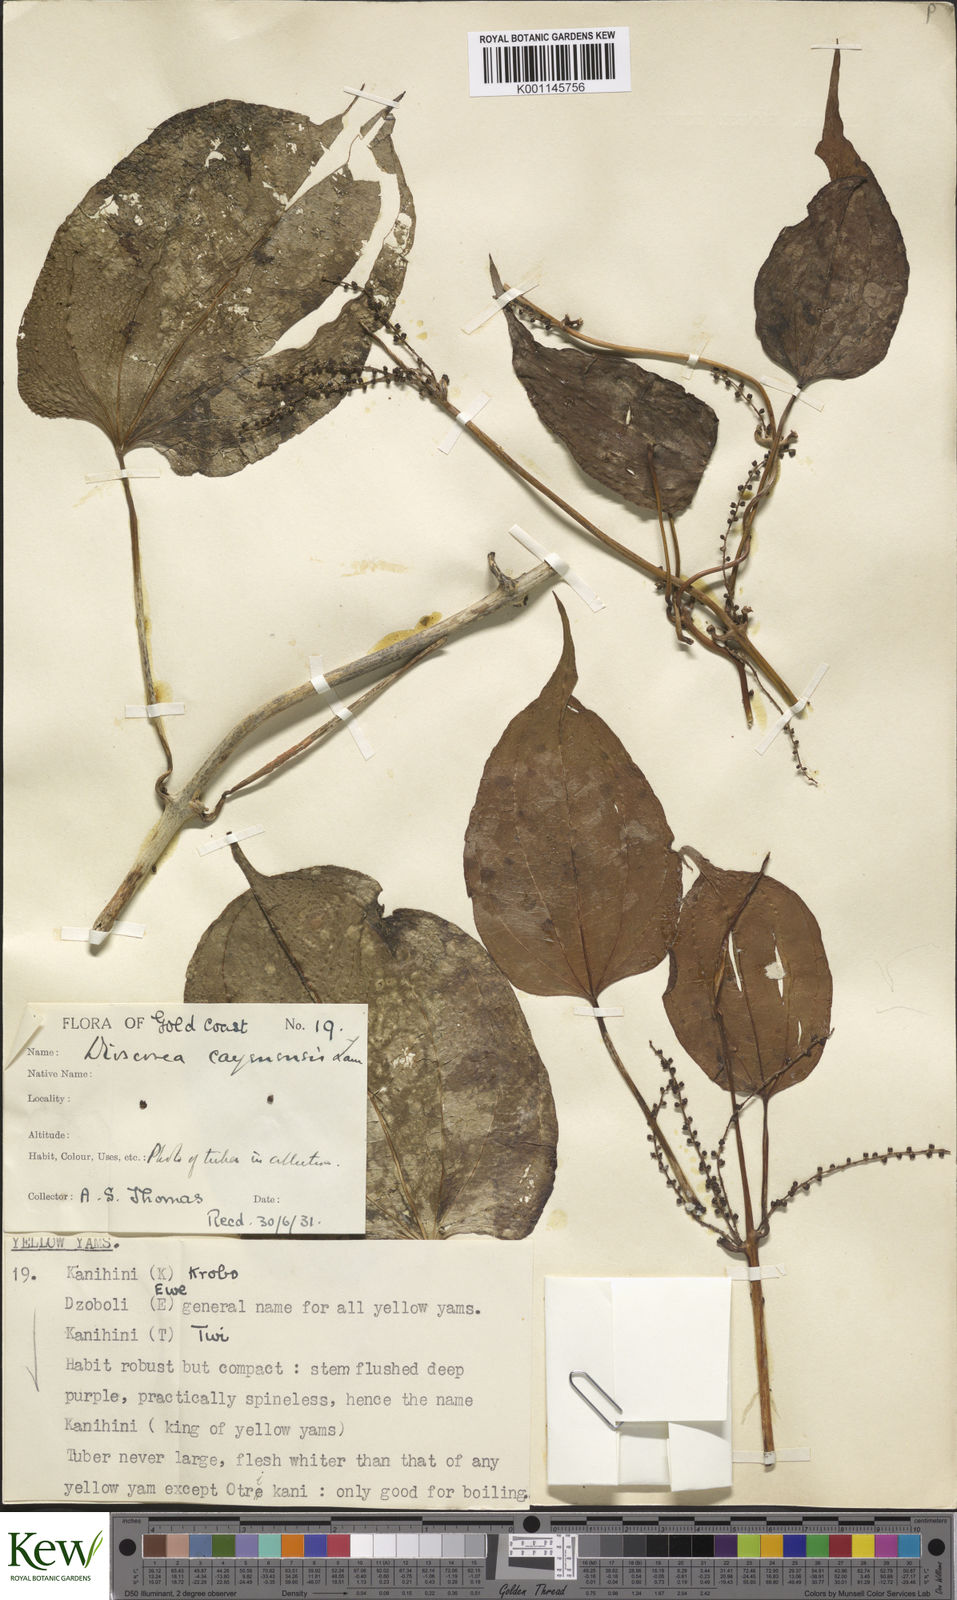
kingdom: Plantae
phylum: Tracheophyta
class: Liliopsida
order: Dioscoreales
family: Dioscoreaceae
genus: Dioscorea
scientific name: Dioscorea cayenensis
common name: Attoto yam
